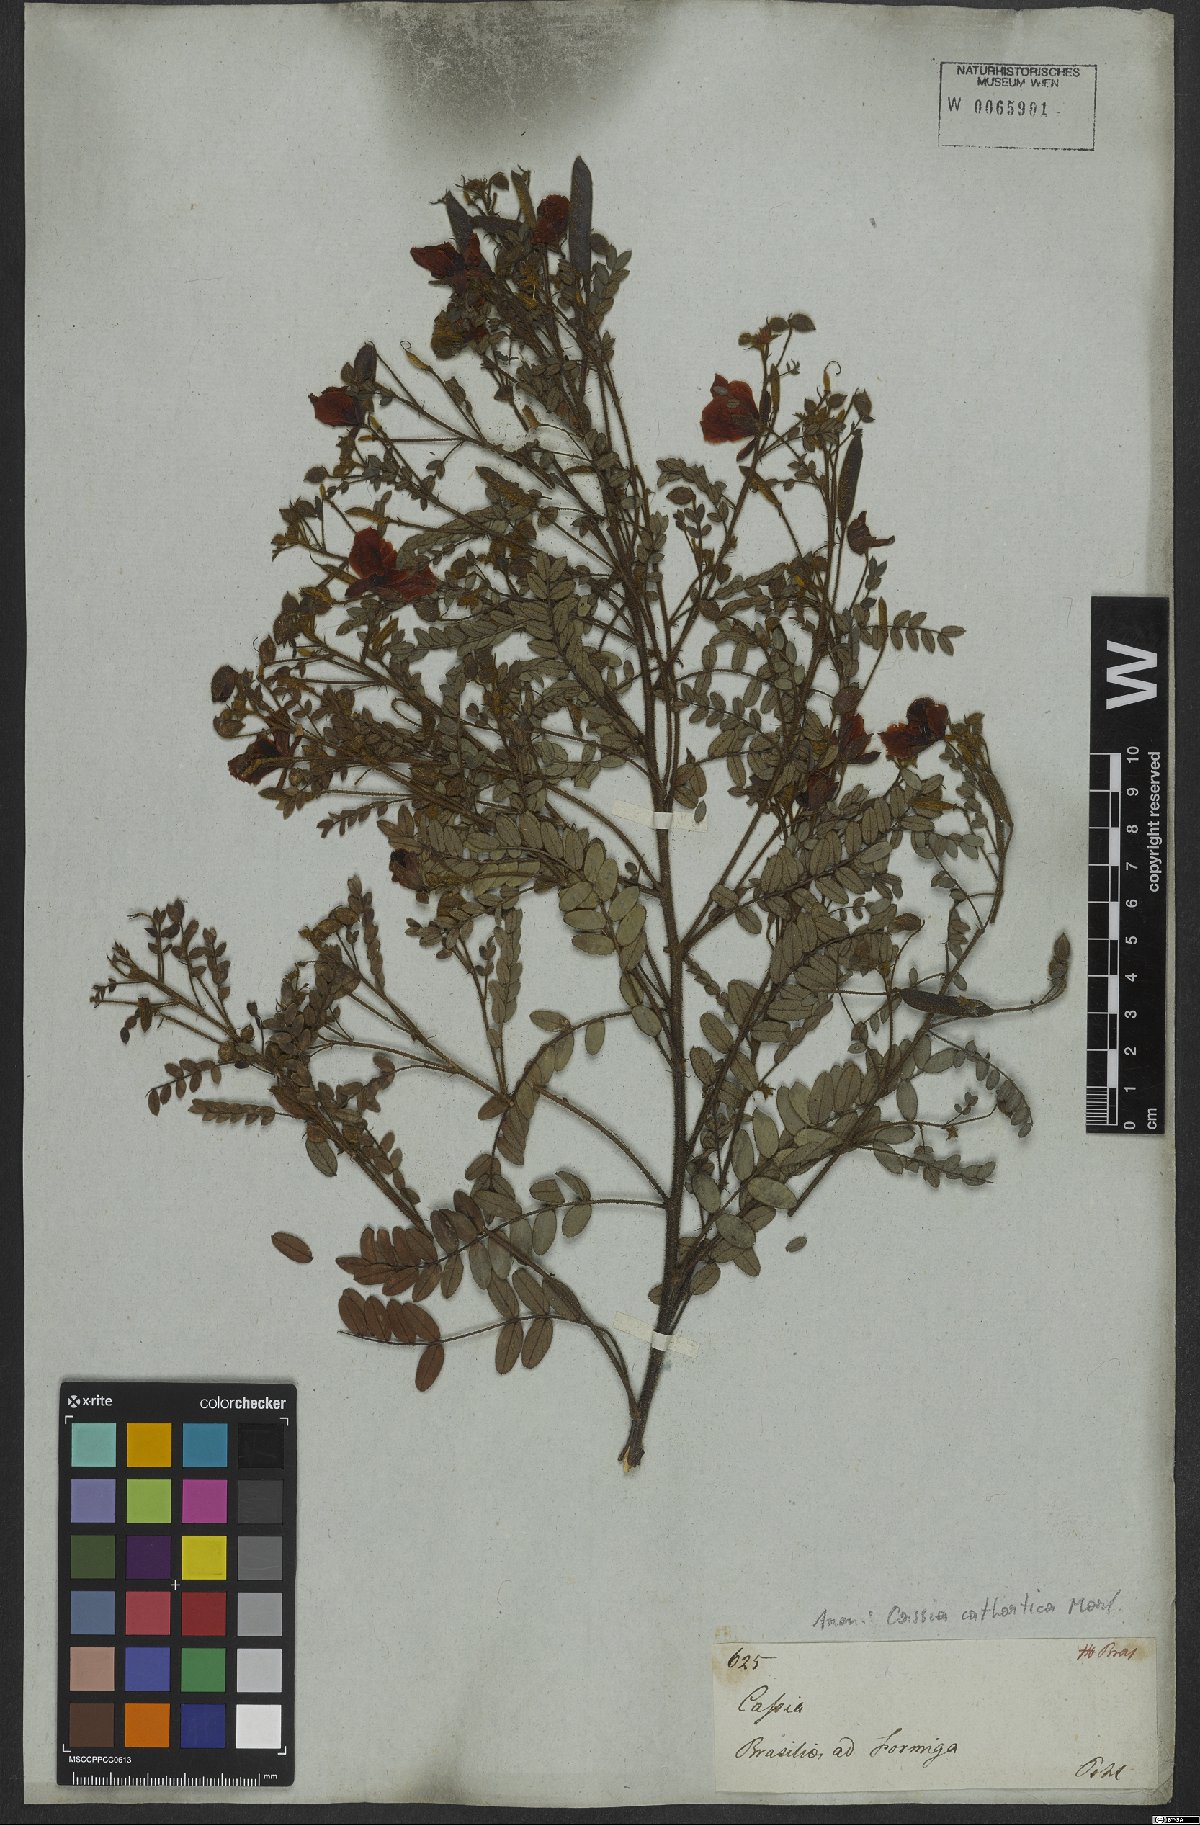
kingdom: Plantae
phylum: Tracheophyta
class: Magnoliopsida
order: Fabales
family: Fabaceae
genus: Chamaecrista
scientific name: Chamaecrista cathartica
